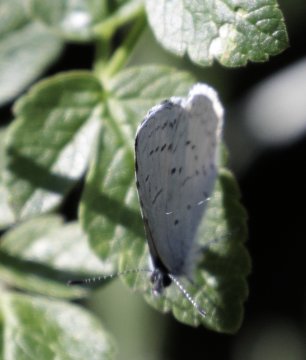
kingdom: Animalia
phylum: Arthropoda
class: Insecta
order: Lepidoptera
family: Lycaenidae
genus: Celastrina
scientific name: Celastrina ladon
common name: Echo Azure
